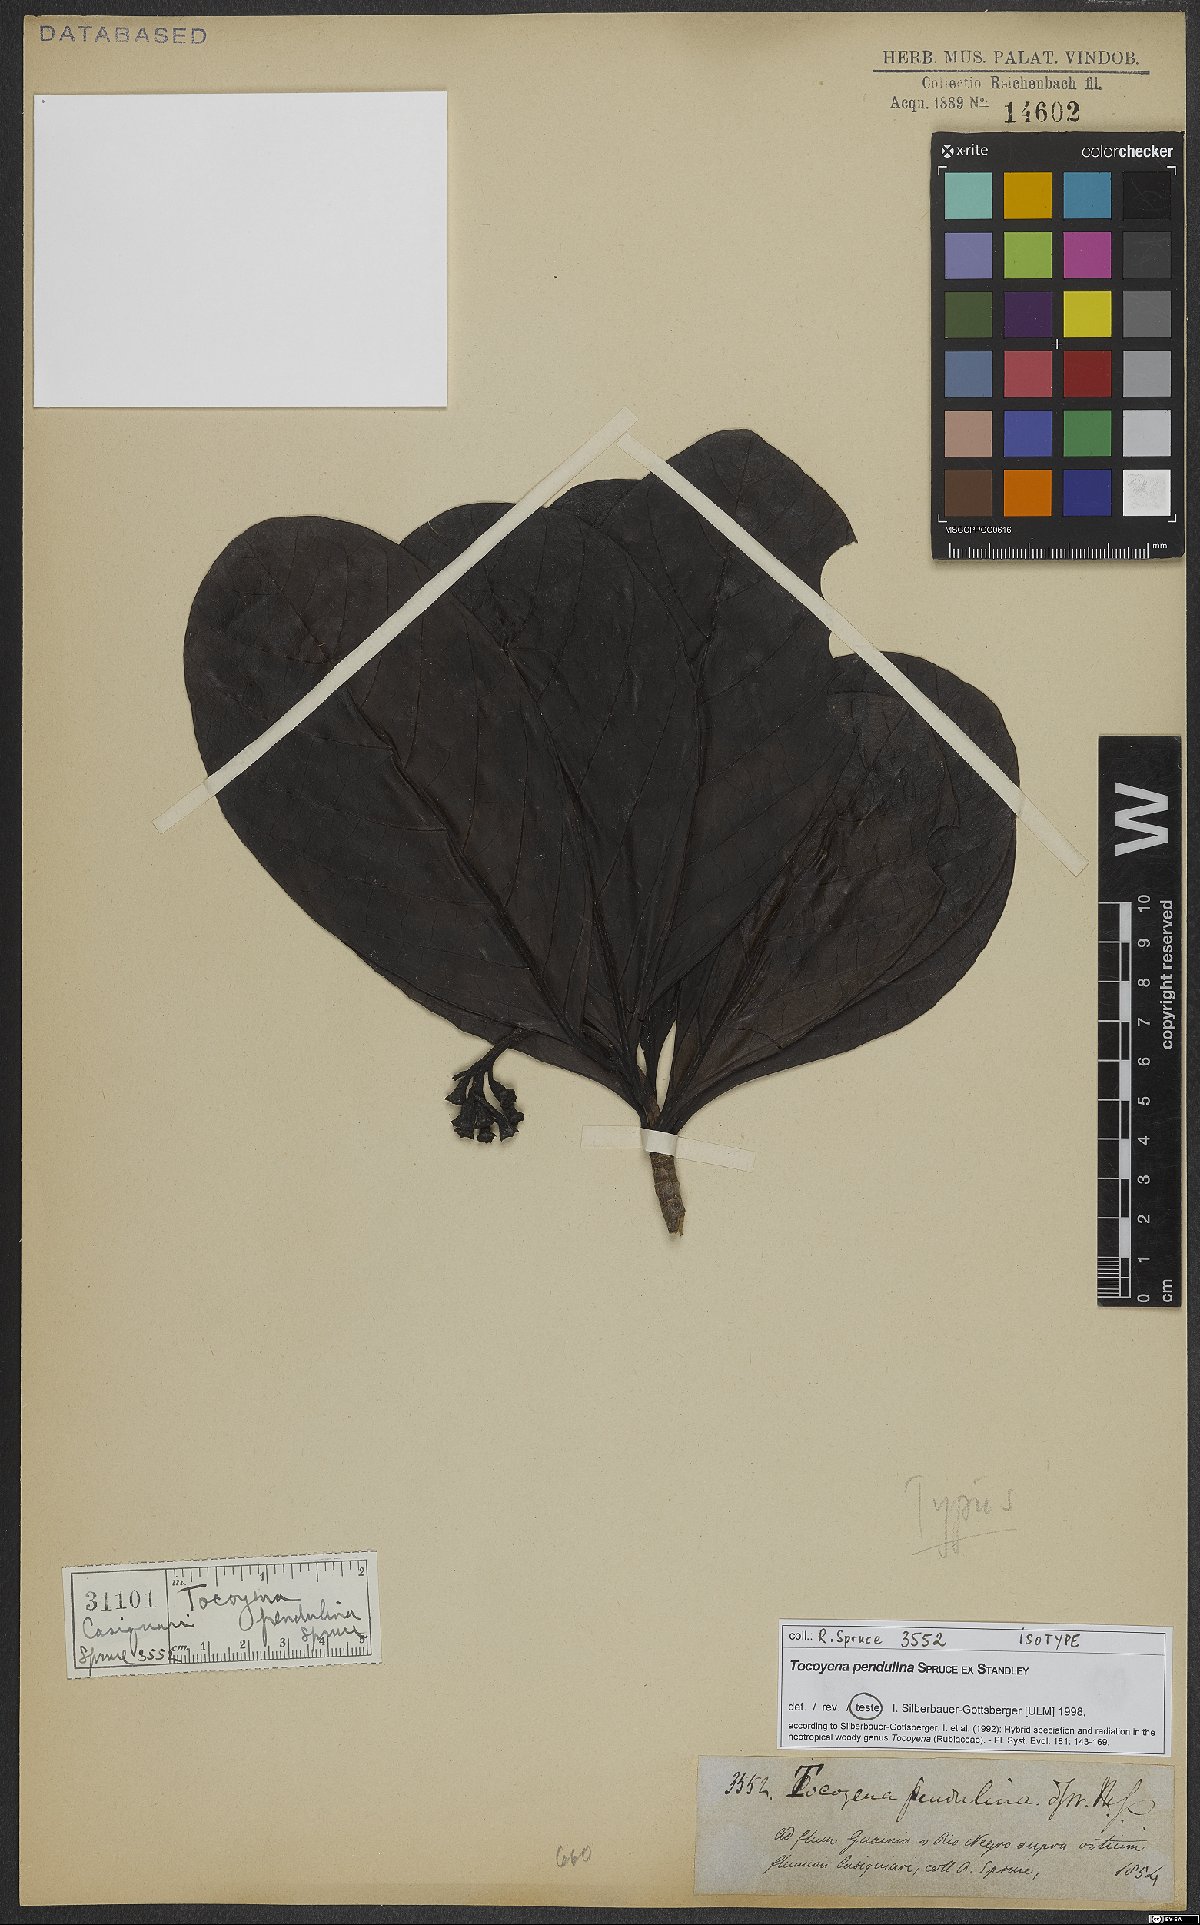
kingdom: Plantae
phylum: Tracheophyta
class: Magnoliopsida
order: Gentianales
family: Rubiaceae
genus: Tocoyena
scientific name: Tocoyena pendulina
